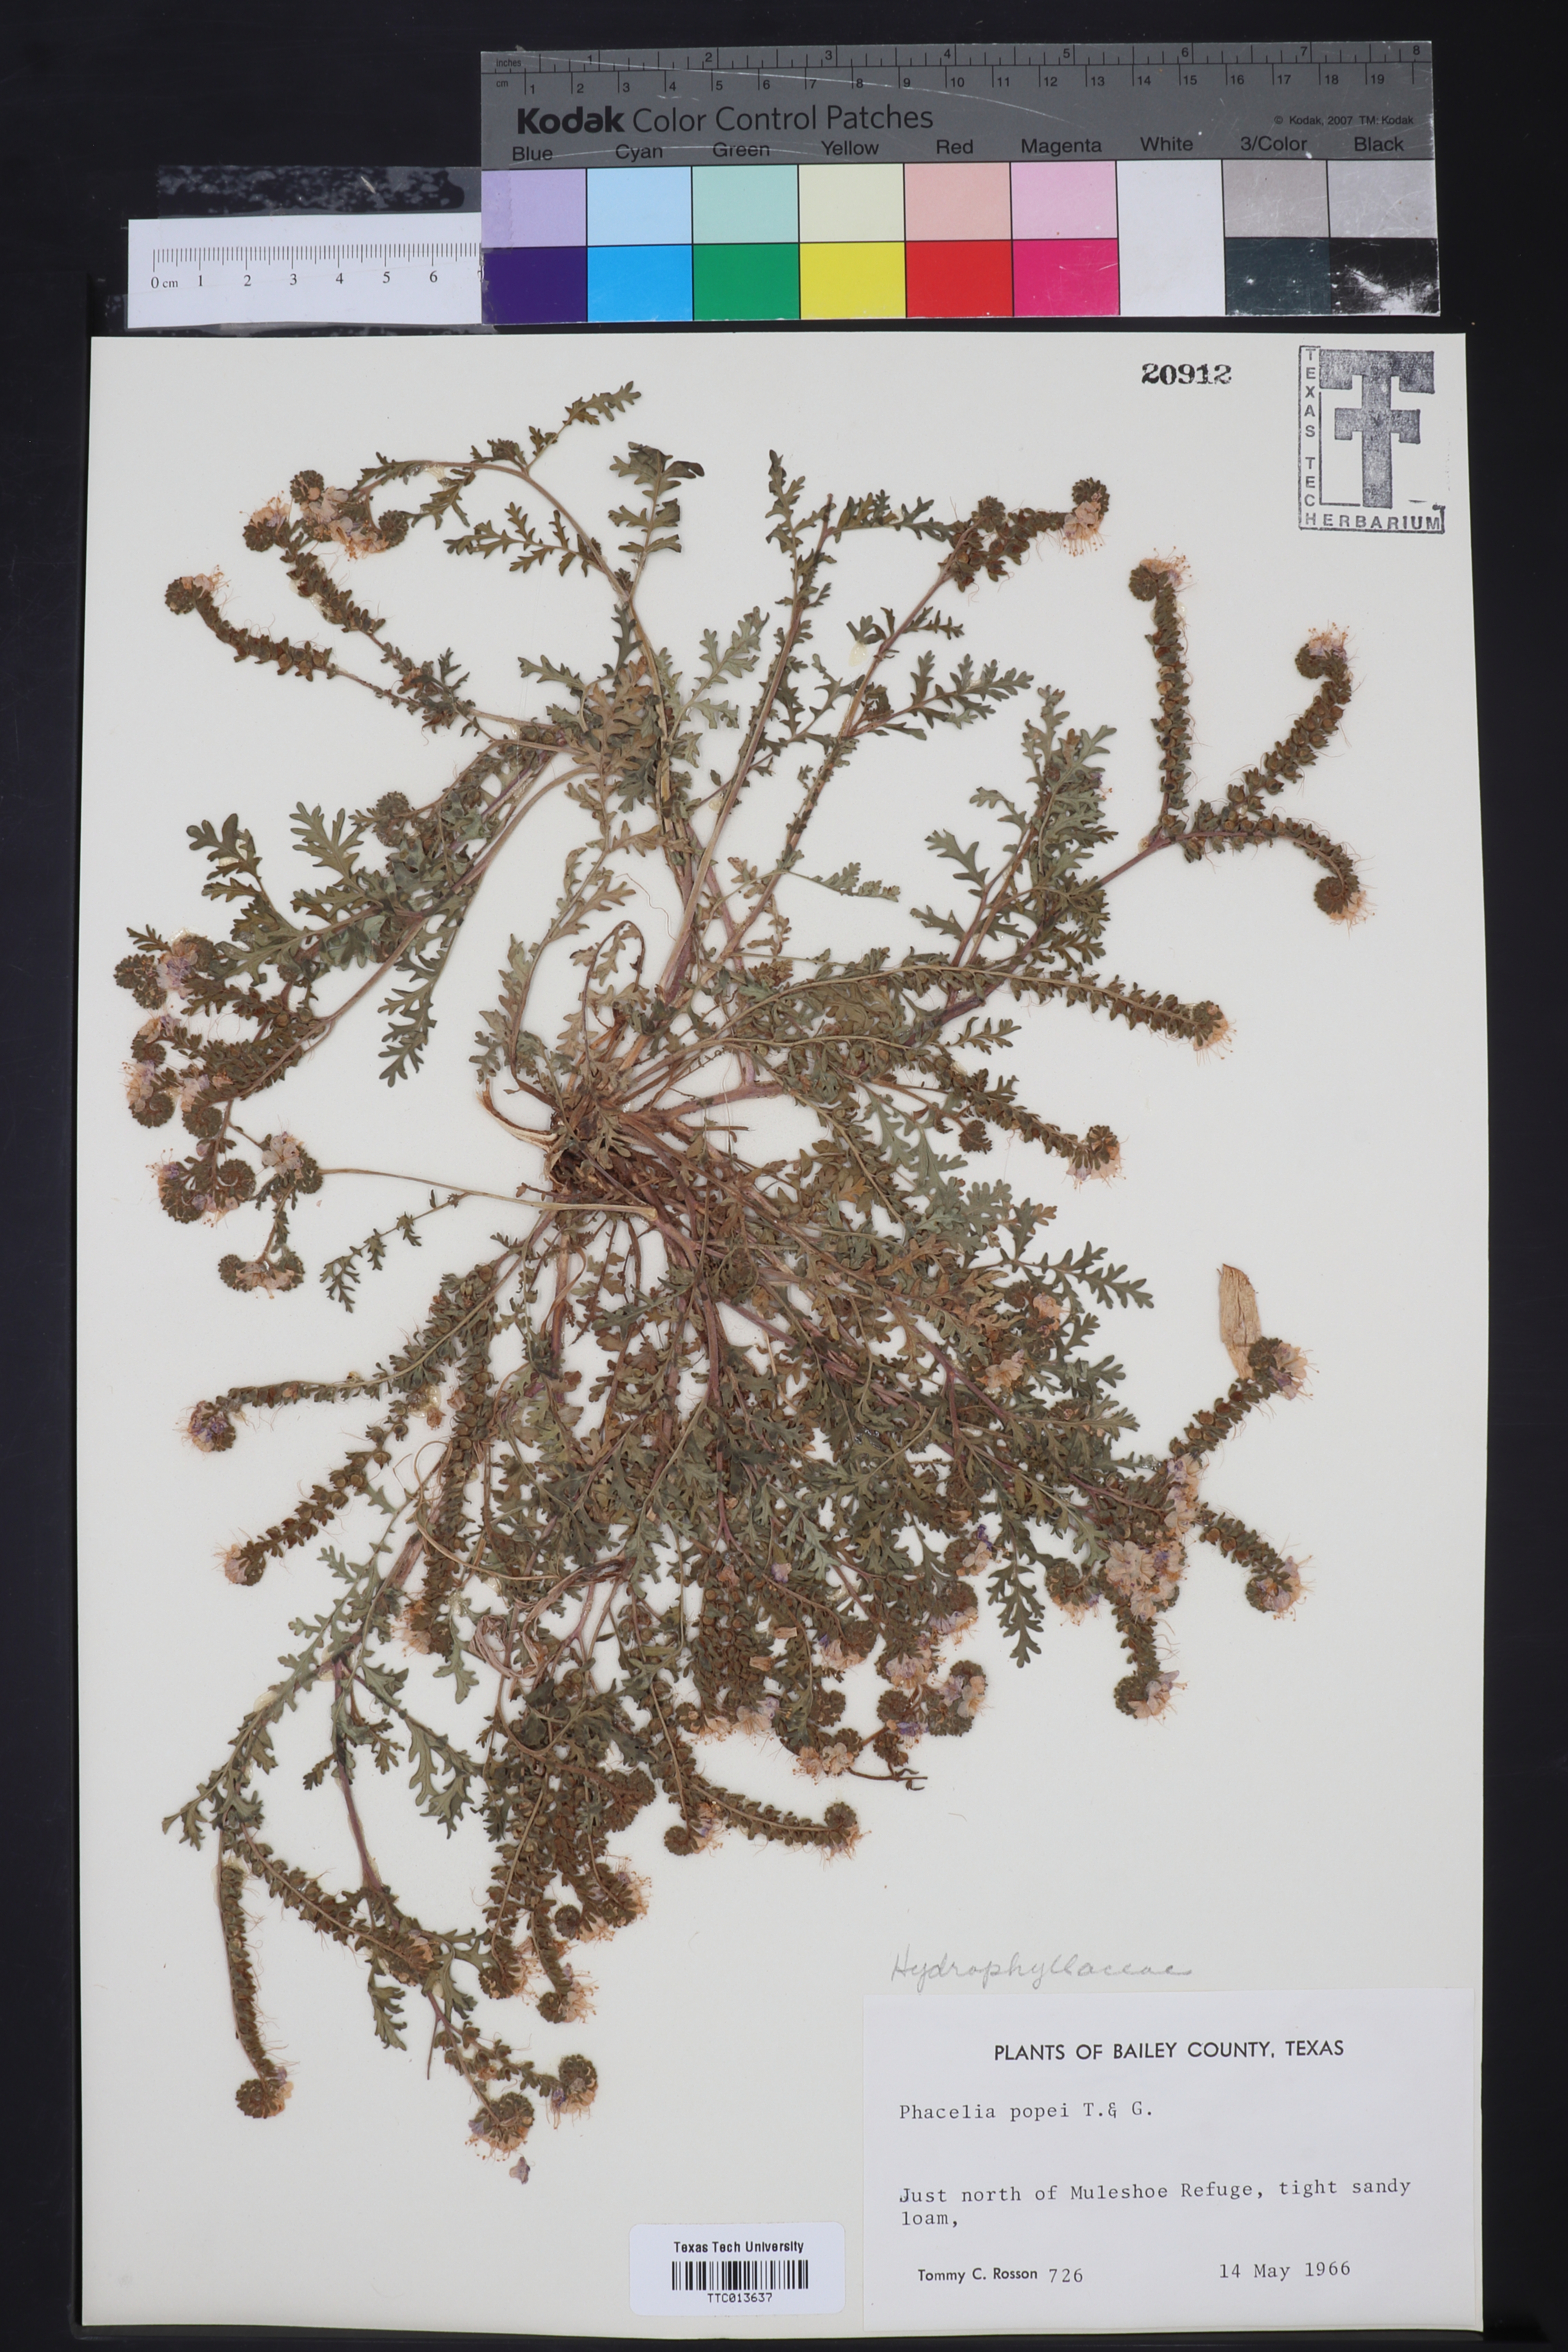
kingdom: Plantae
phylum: Tracheophyta
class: Magnoliopsida
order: Boraginales
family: Hydrophyllaceae
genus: Phacelia
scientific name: Phacelia popei
